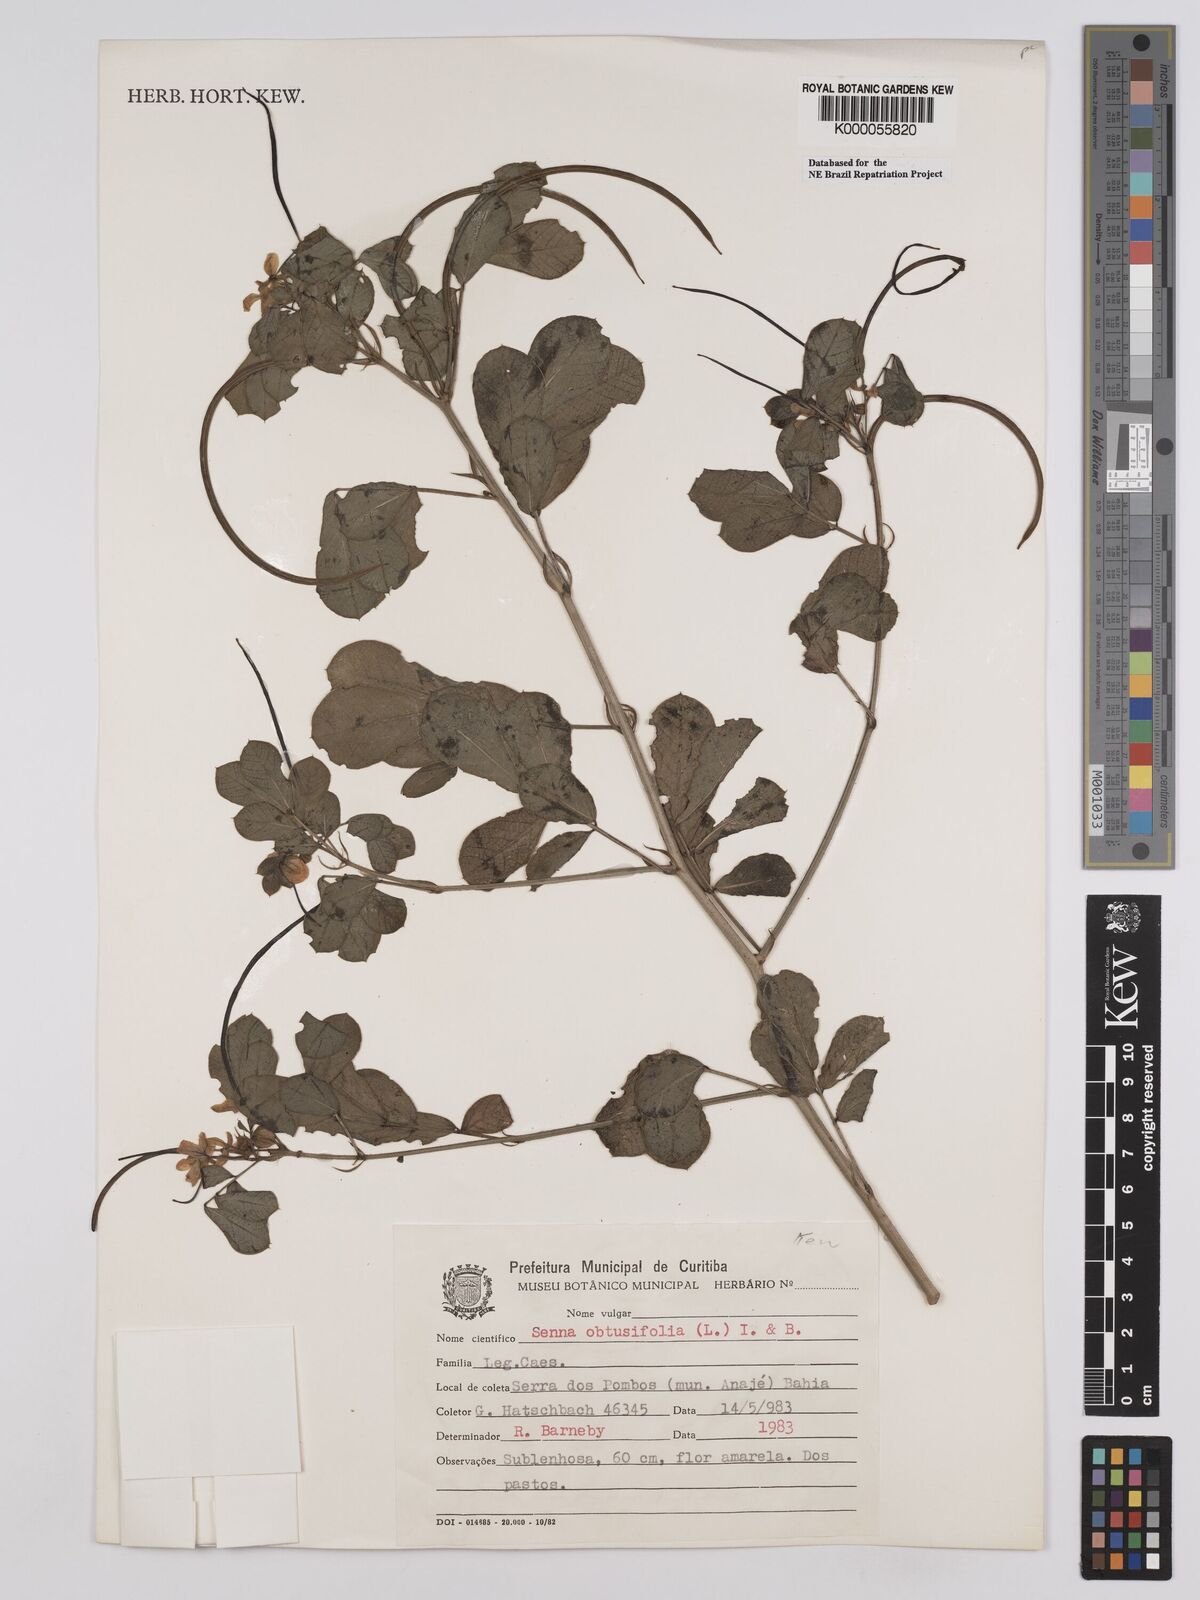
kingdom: Plantae
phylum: Tracheophyta
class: Magnoliopsida
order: Fabales
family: Fabaceae
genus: Senna
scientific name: Senna obtusifolia
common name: Java-bean
